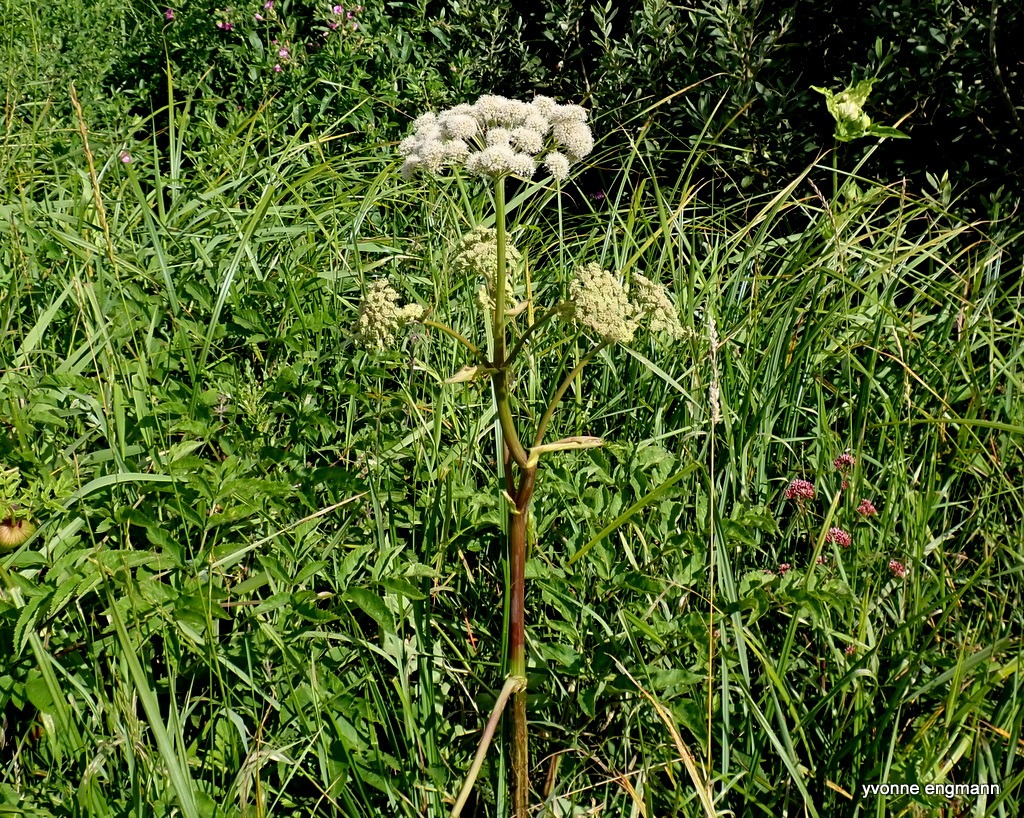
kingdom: Plantae
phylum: Tracheophyta
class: Magnoliopsida
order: Apiales
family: Apiaceae
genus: Angelica
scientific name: Angelica sylvestris
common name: Angelik
